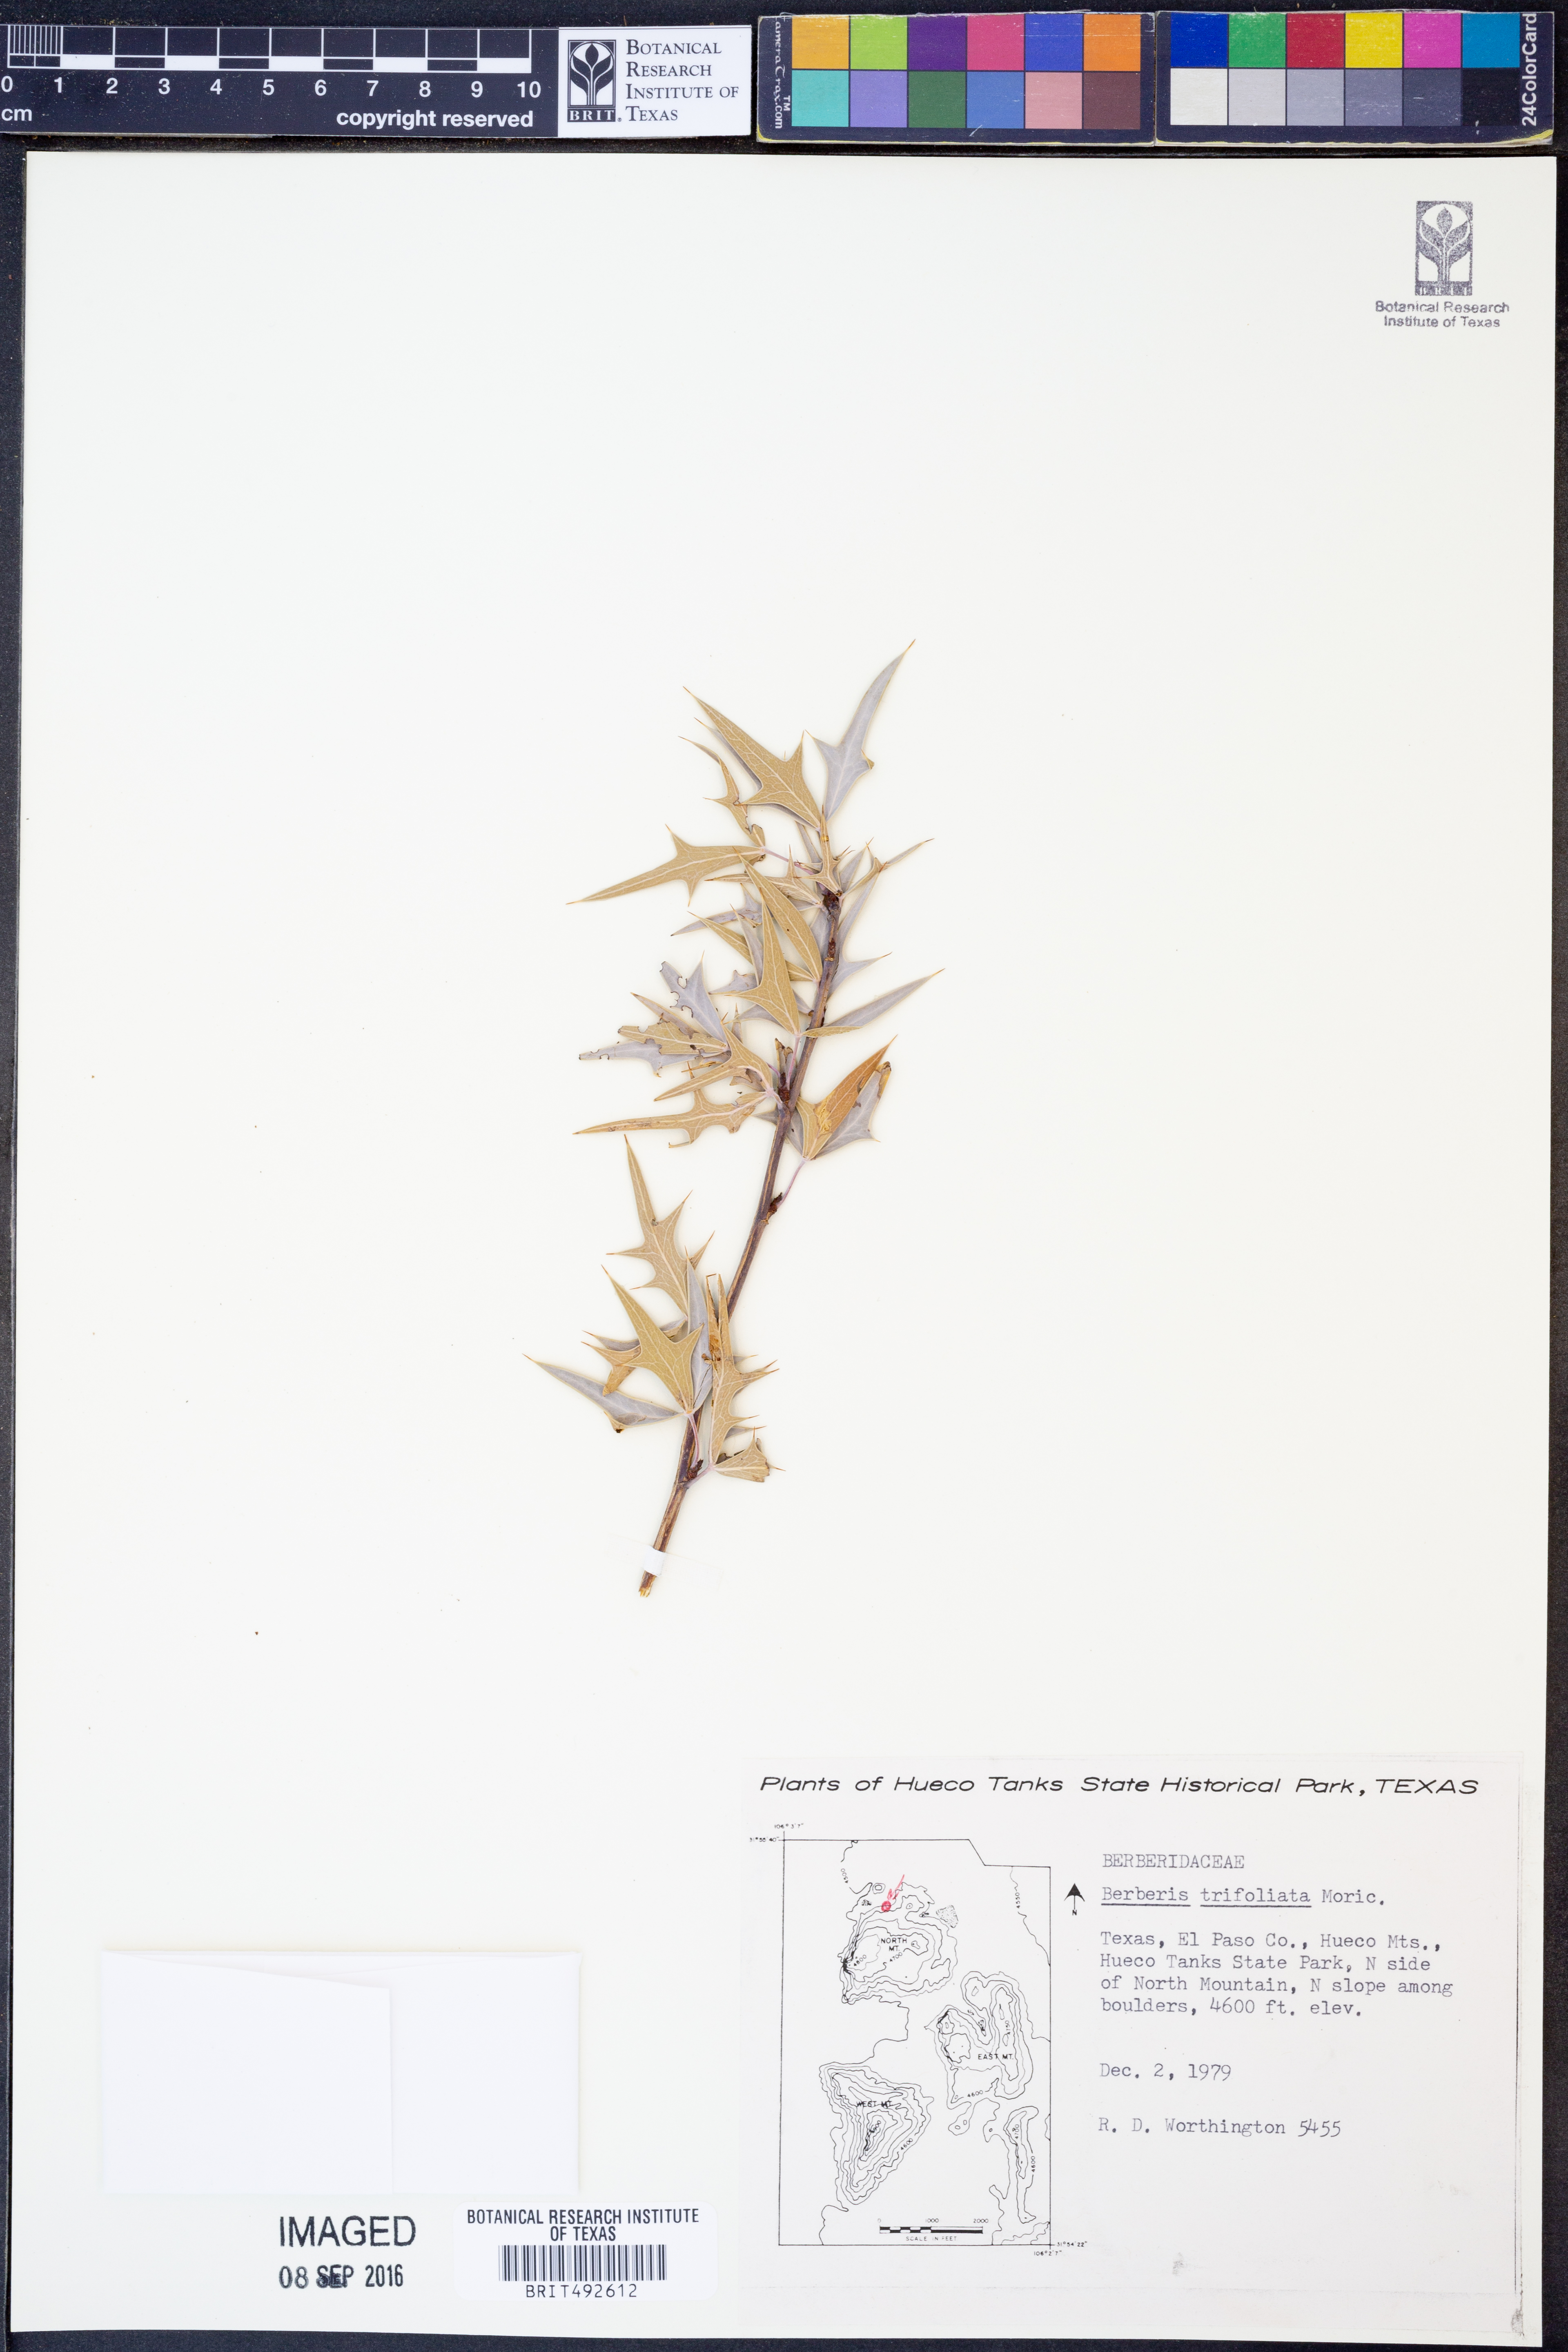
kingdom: Plantae
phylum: Tracheophyta
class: Magnoliopsida
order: Ranunculales
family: Berberidaceae
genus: Alloberberis
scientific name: Alloberberis fremontii
